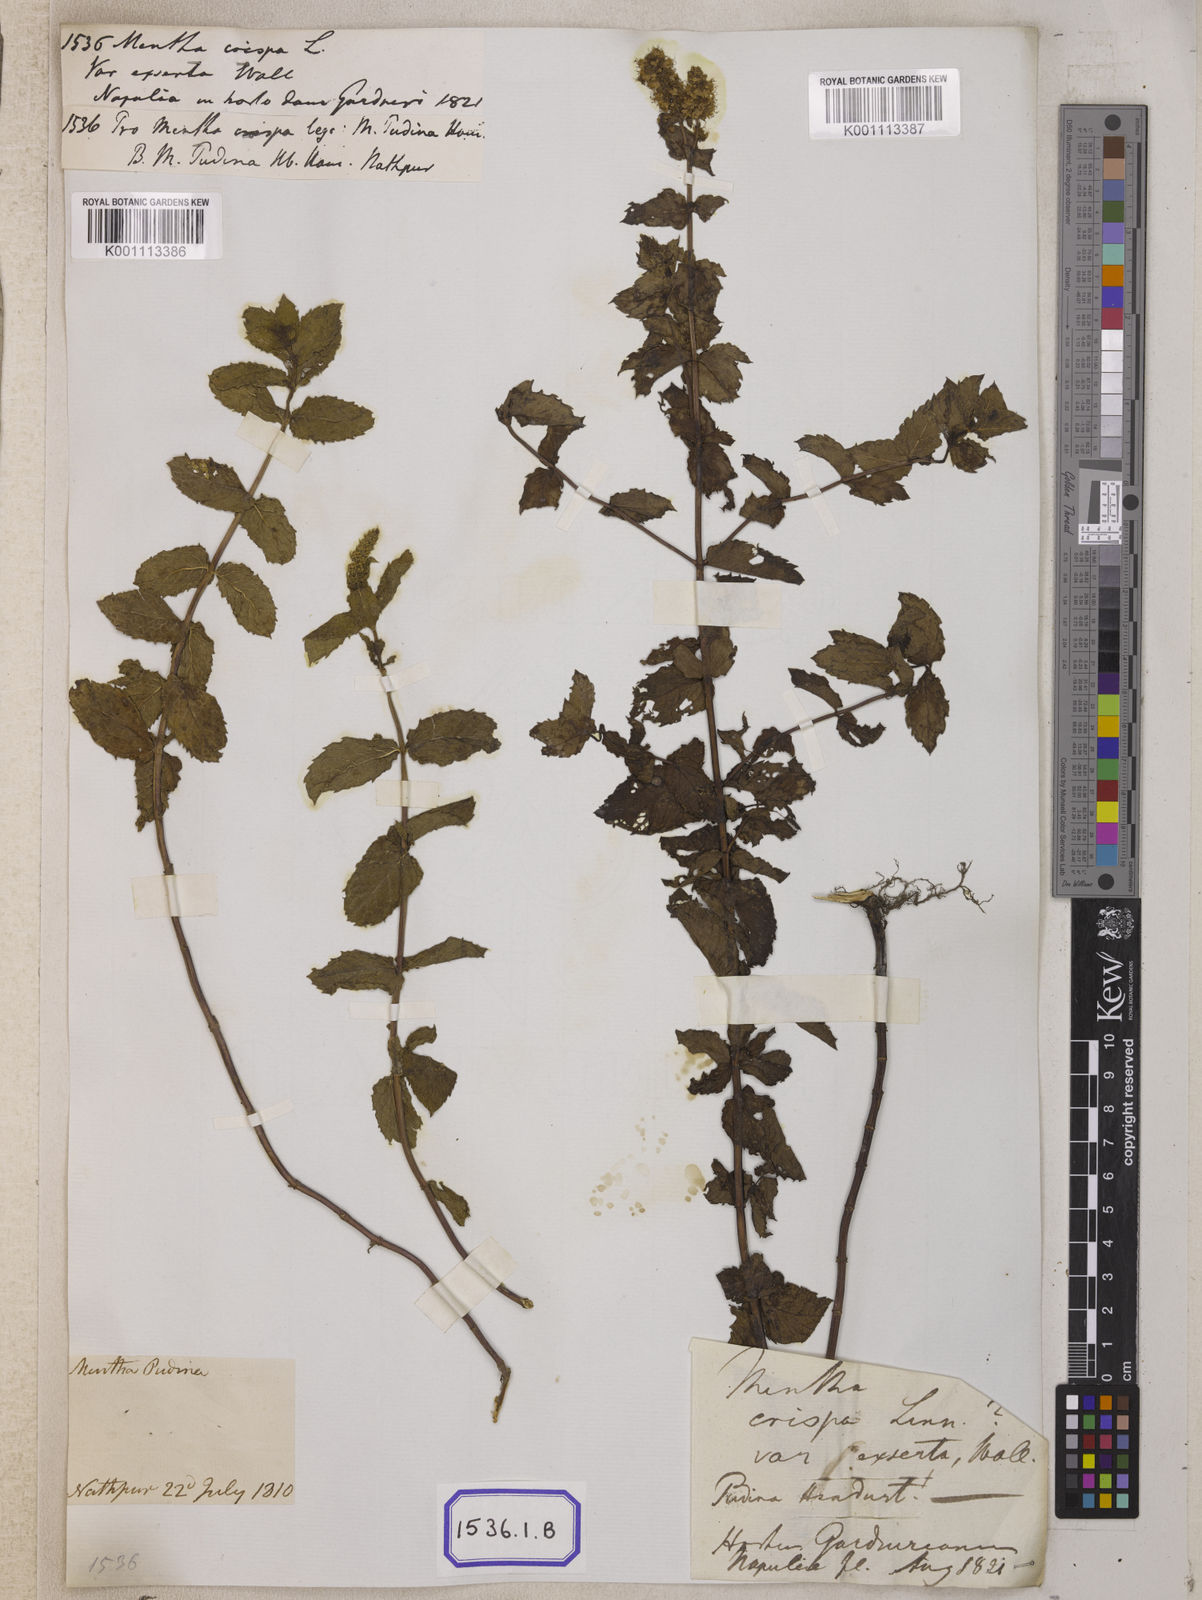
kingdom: Plantae
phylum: Tracheophyta
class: Magnoliopsida
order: Lamiales
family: Lamiaceae
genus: Mentha
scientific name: Mentha spicata
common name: Spearmint
